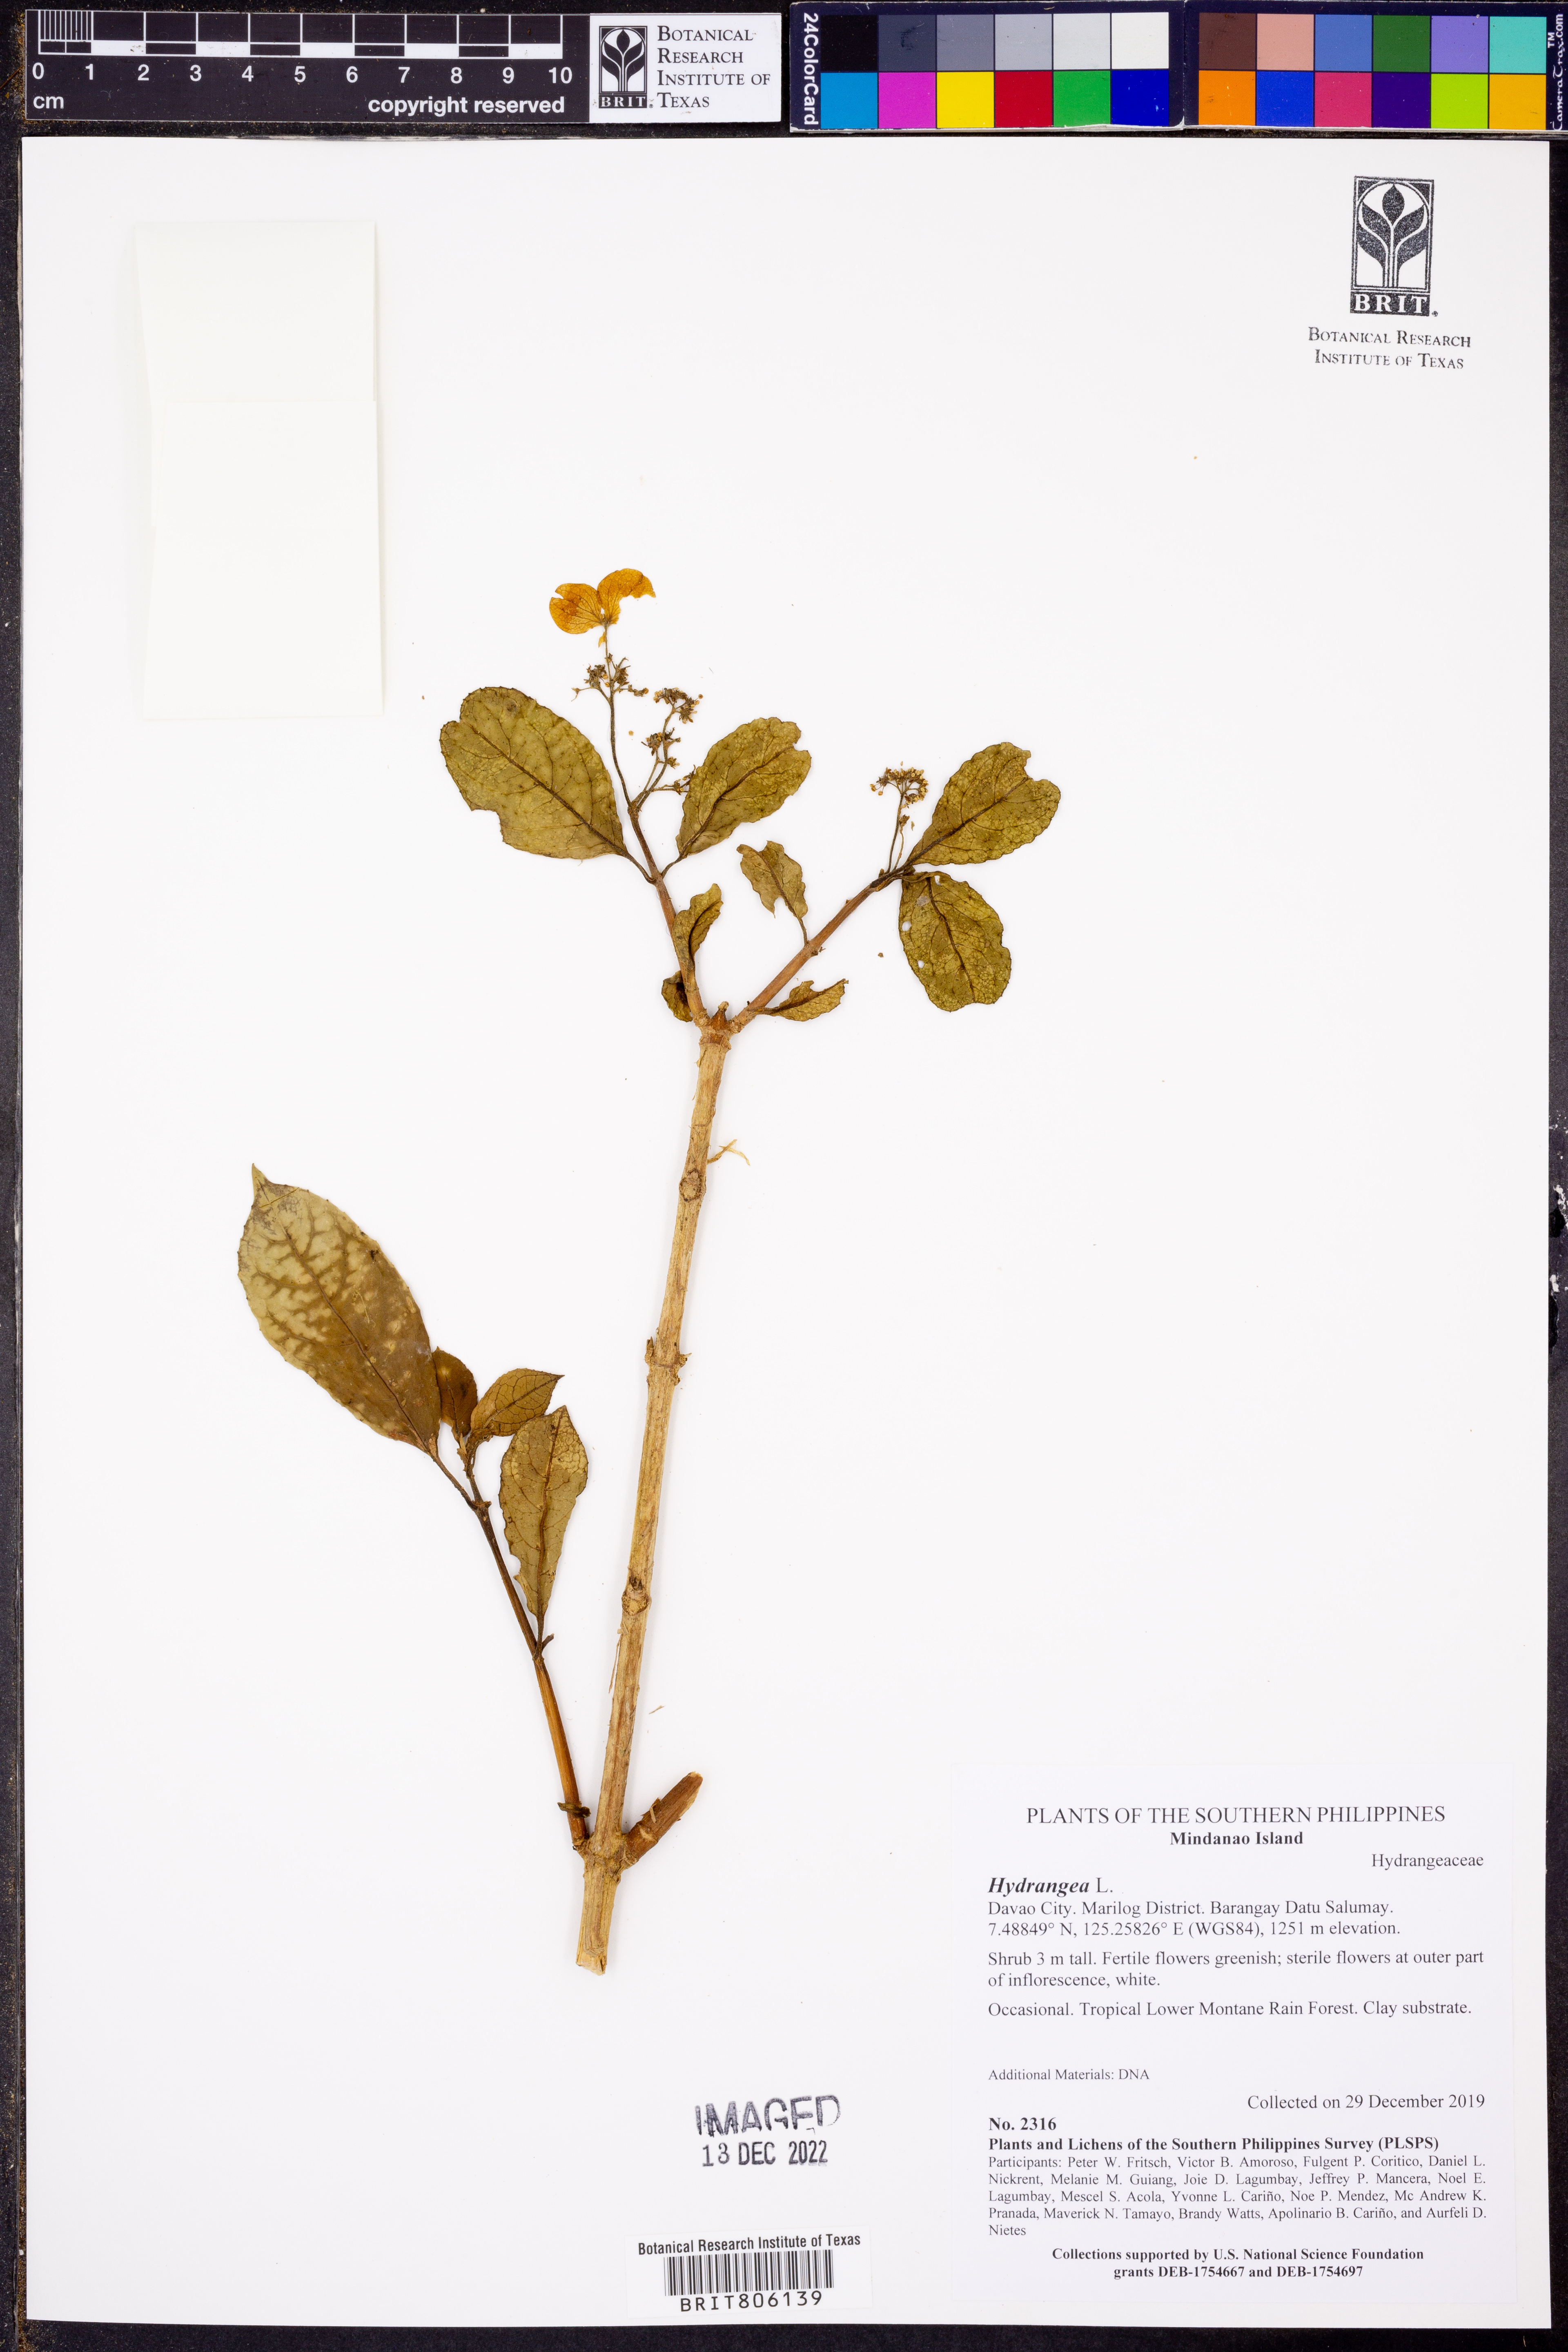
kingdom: Plantae
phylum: Tracheophyta
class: Magnoliopsida
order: Cornales
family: Hydrangeaceae
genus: Hydrangea
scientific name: Hydrangea
